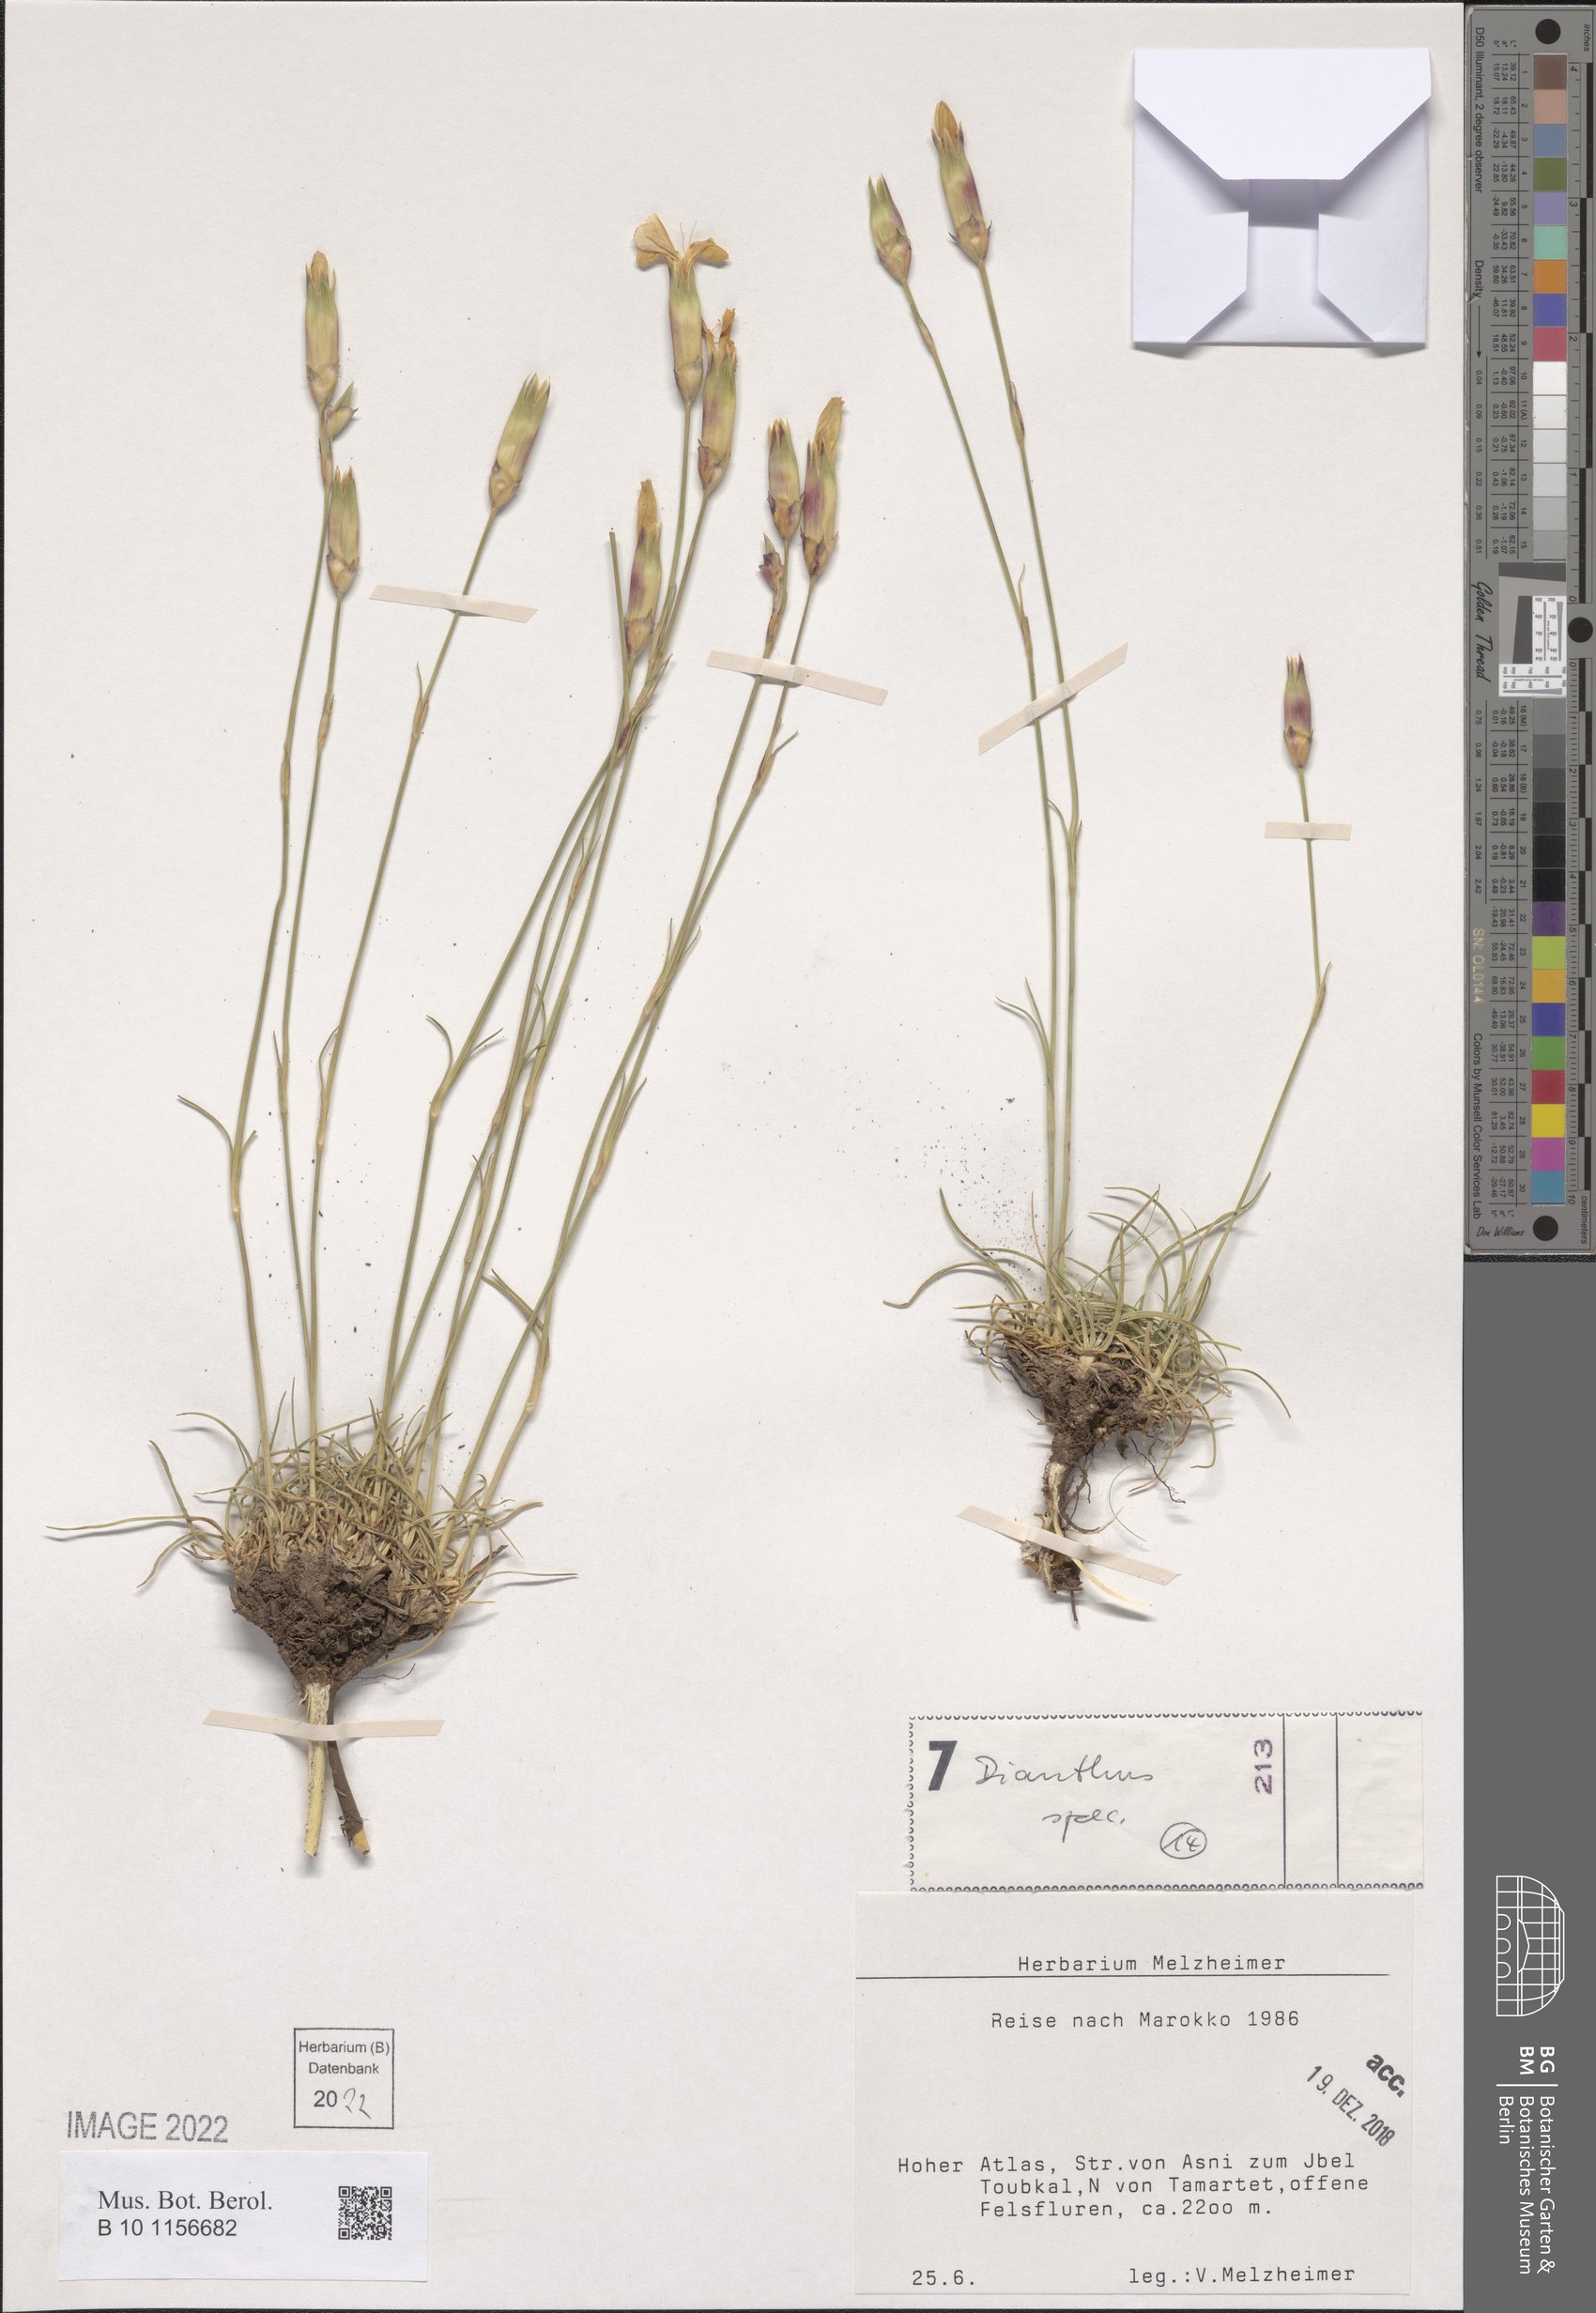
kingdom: Plantae
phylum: Tracheophyta
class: Magnoliopsida
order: Caryophyllales
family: Caryophyllaceae
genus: Dianthus
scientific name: Dianthus
